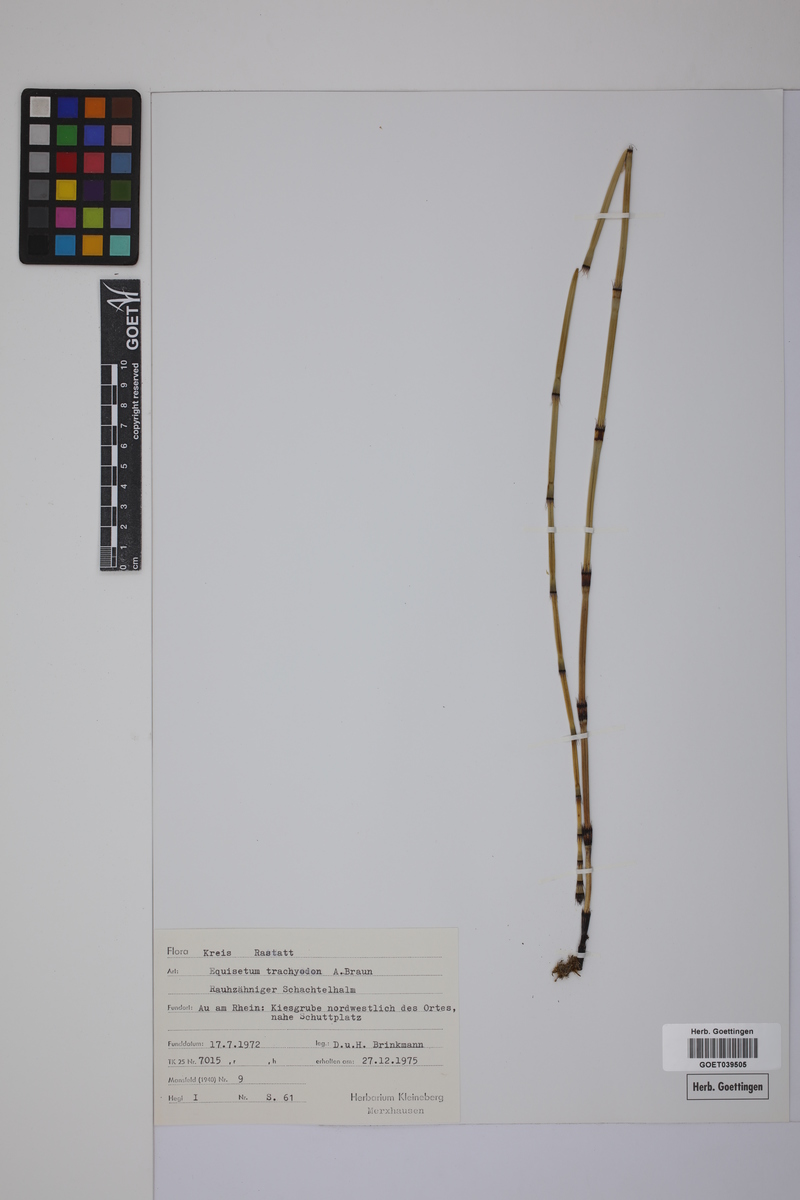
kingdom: Plantae
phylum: Tracheophyta
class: Polypodiopsida
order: Equisetales
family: Equisetaceae
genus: Equisetum
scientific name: Equisetum trachyodon
